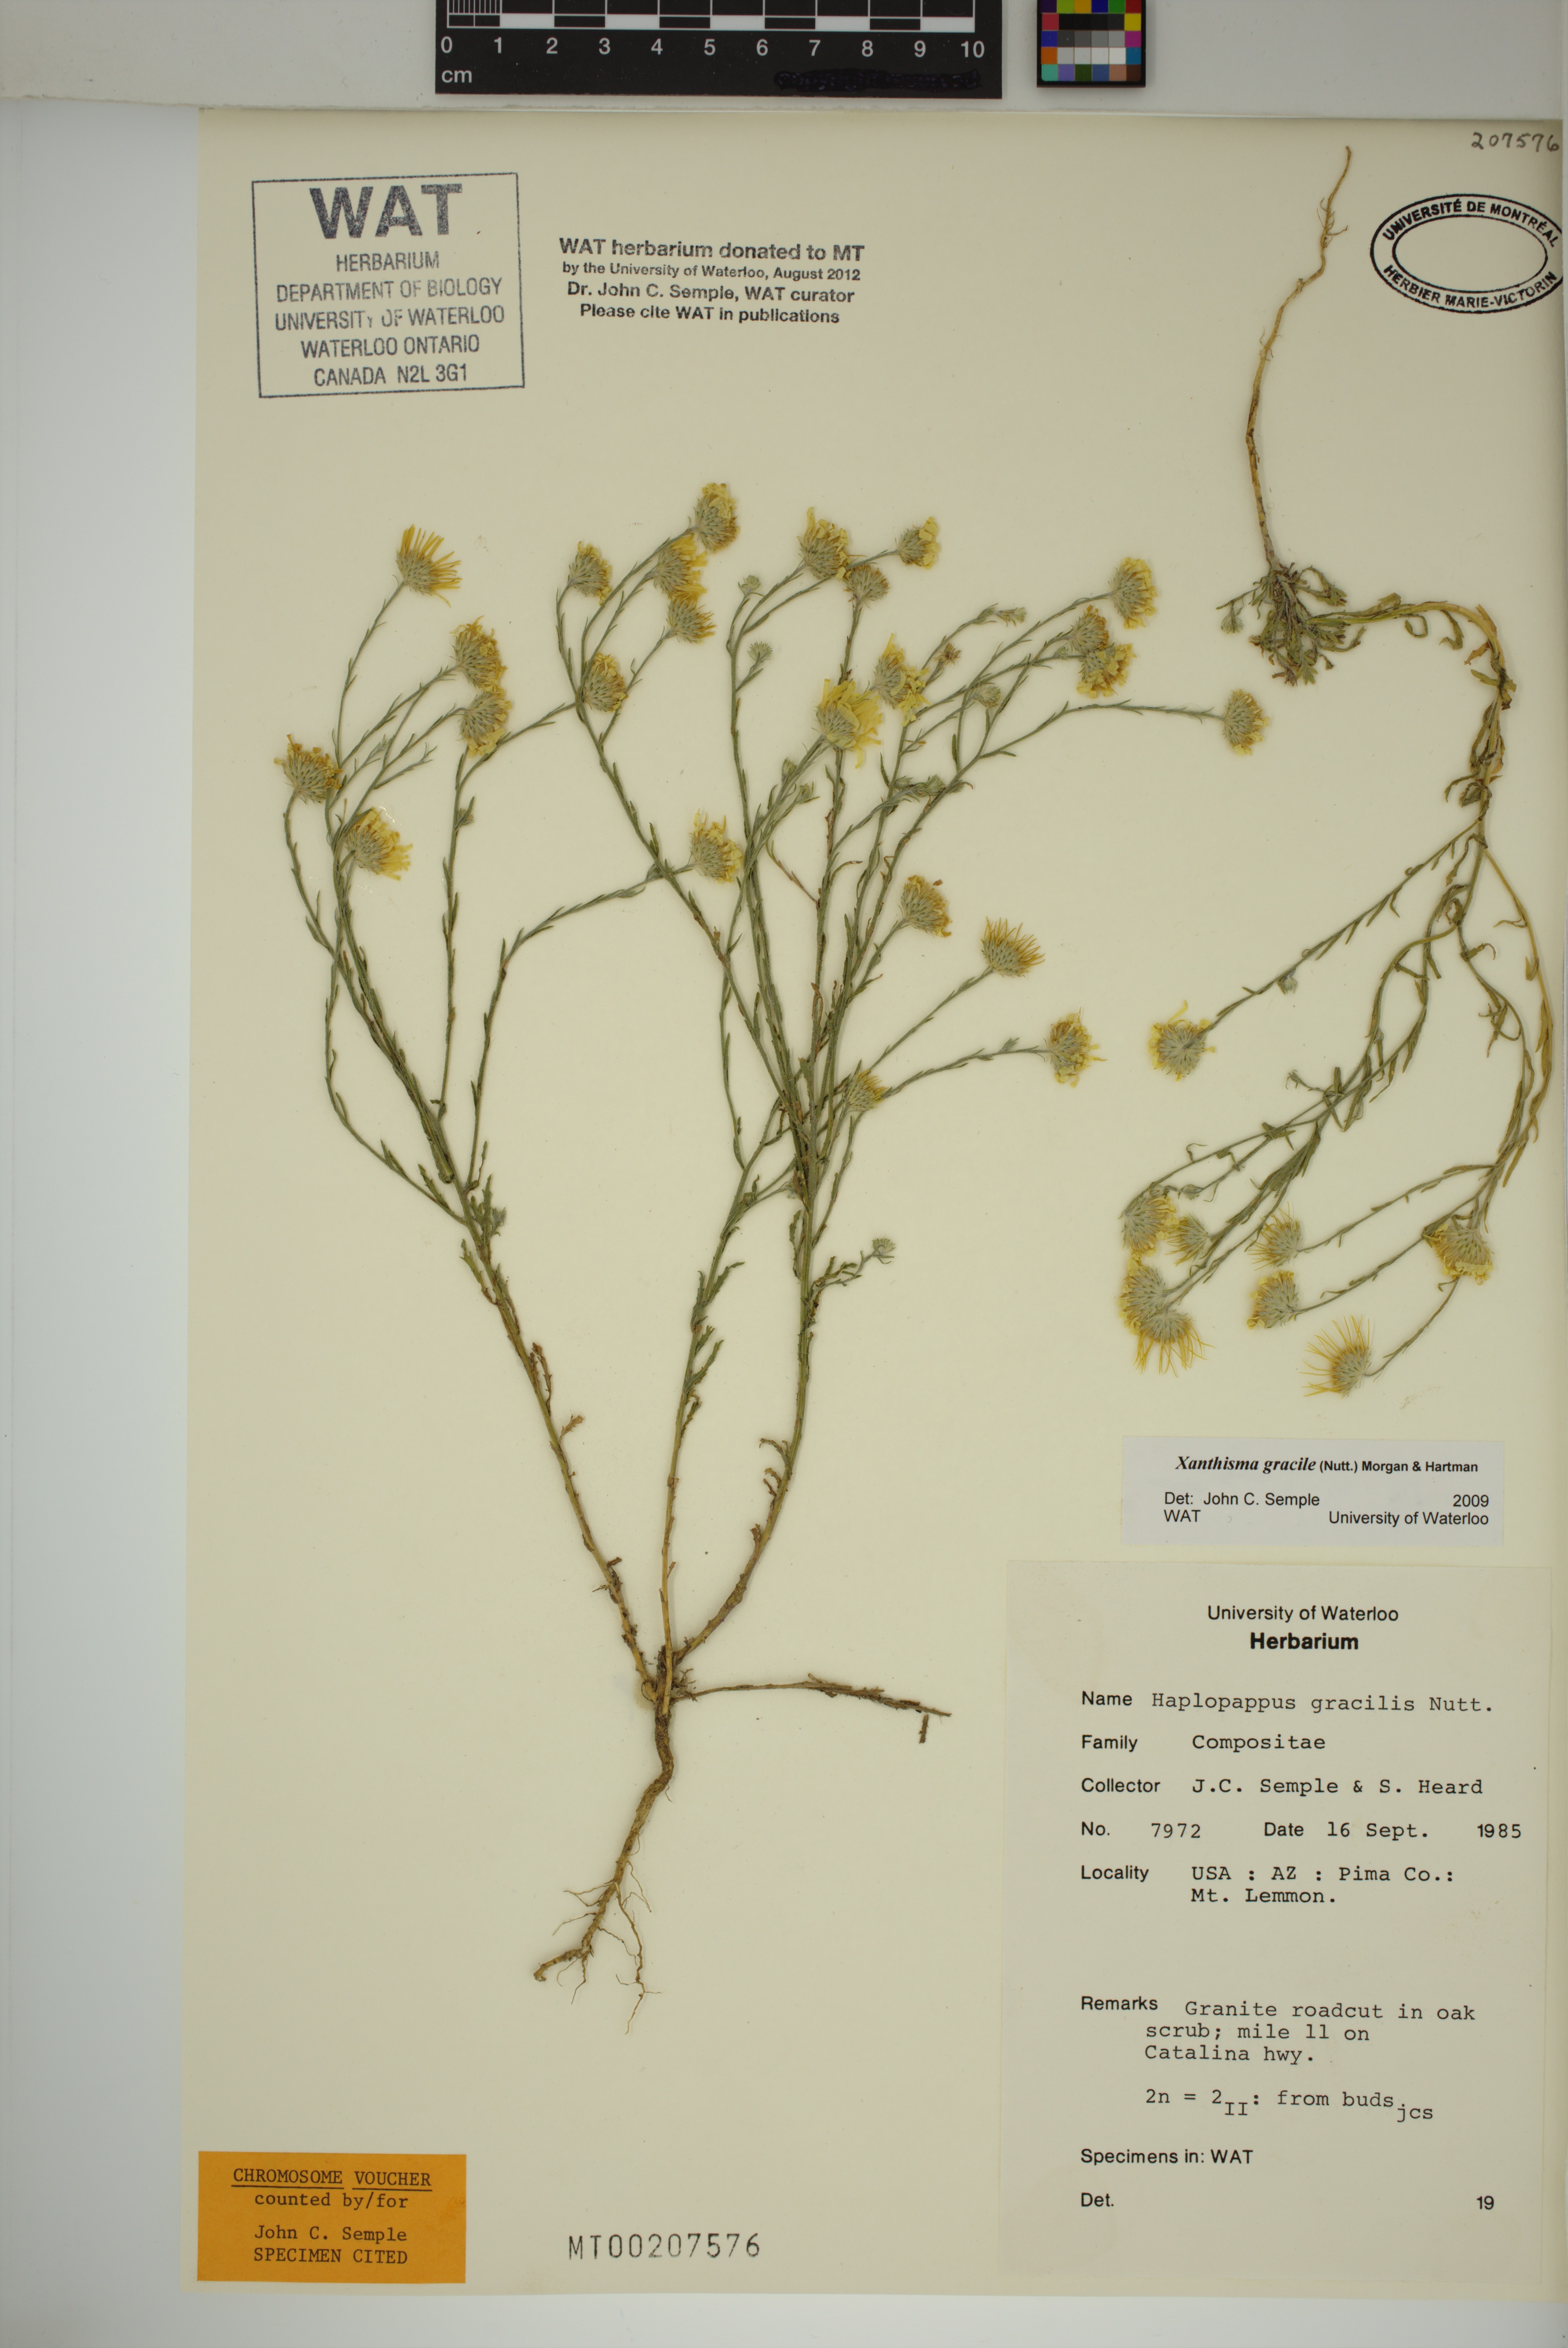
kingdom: Plantae
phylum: Tracheophyta
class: Magnoliopsida
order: Asterales
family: Asteraceae
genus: Xanthisma
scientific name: Xanthisma gracile
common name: Slender goldenweed
